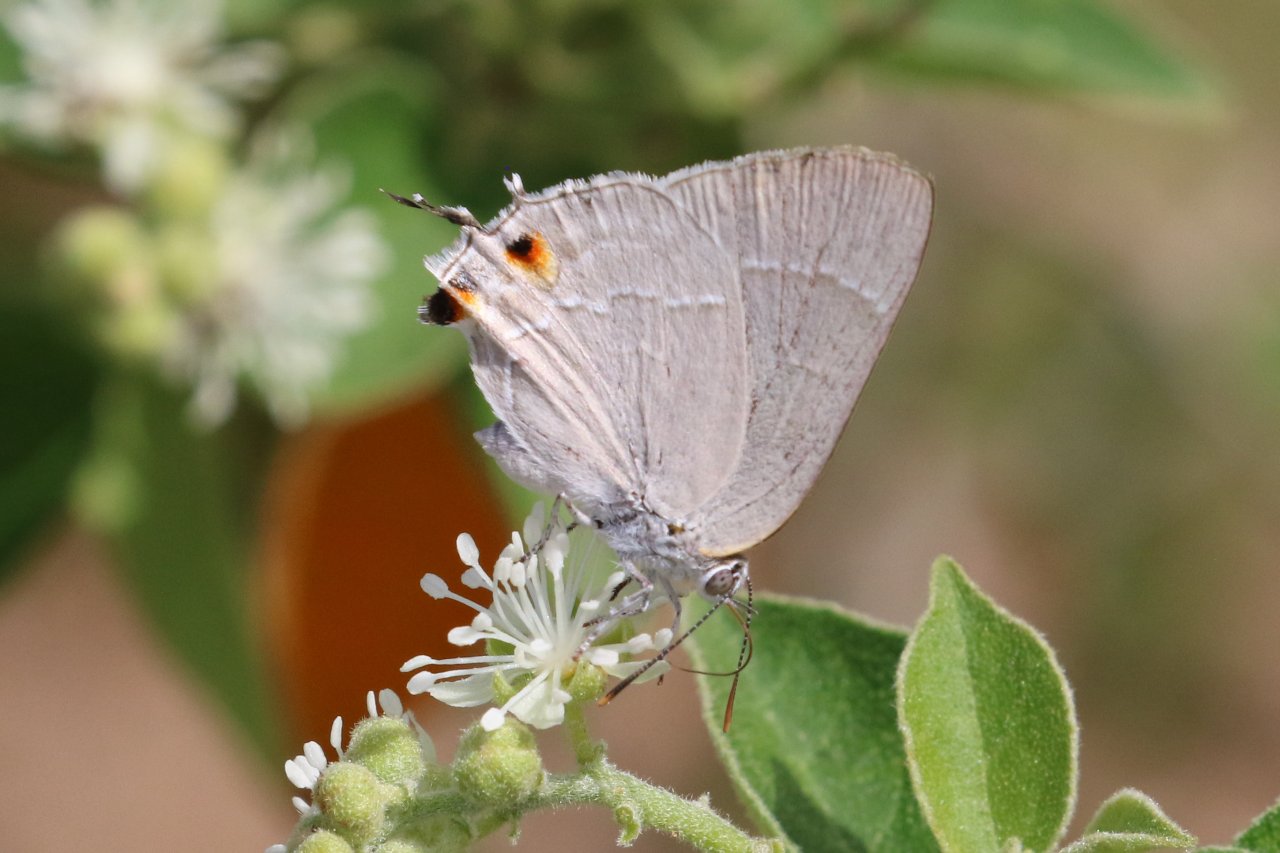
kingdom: Animalia
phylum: Arthropoda
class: Insecta
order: Lepidoptera
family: Lycaenidae
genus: Thecla
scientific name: Thecla marius
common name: Marius Hairstreak
